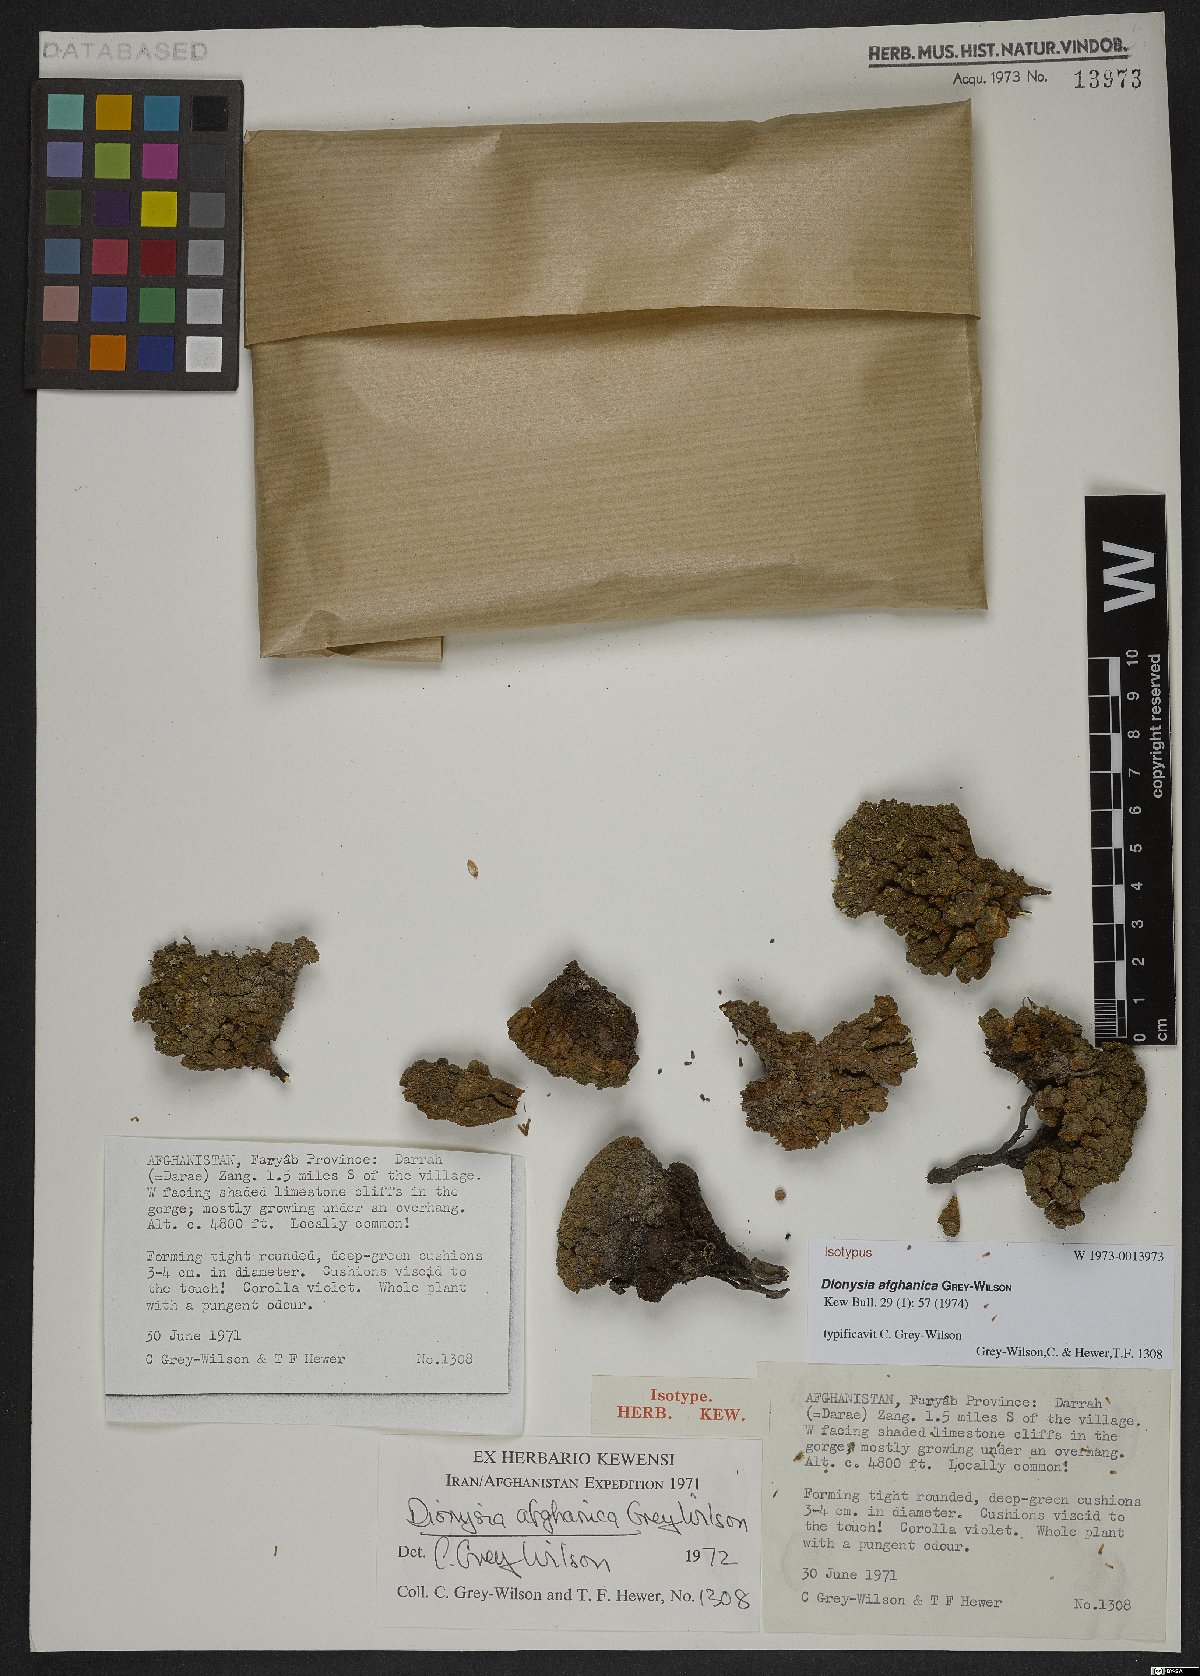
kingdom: Plantae
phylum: Tracheophyta
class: Magnoliopsida
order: Ericales
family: Primulaceae
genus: Dionysia
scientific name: Dionysia afghanica
